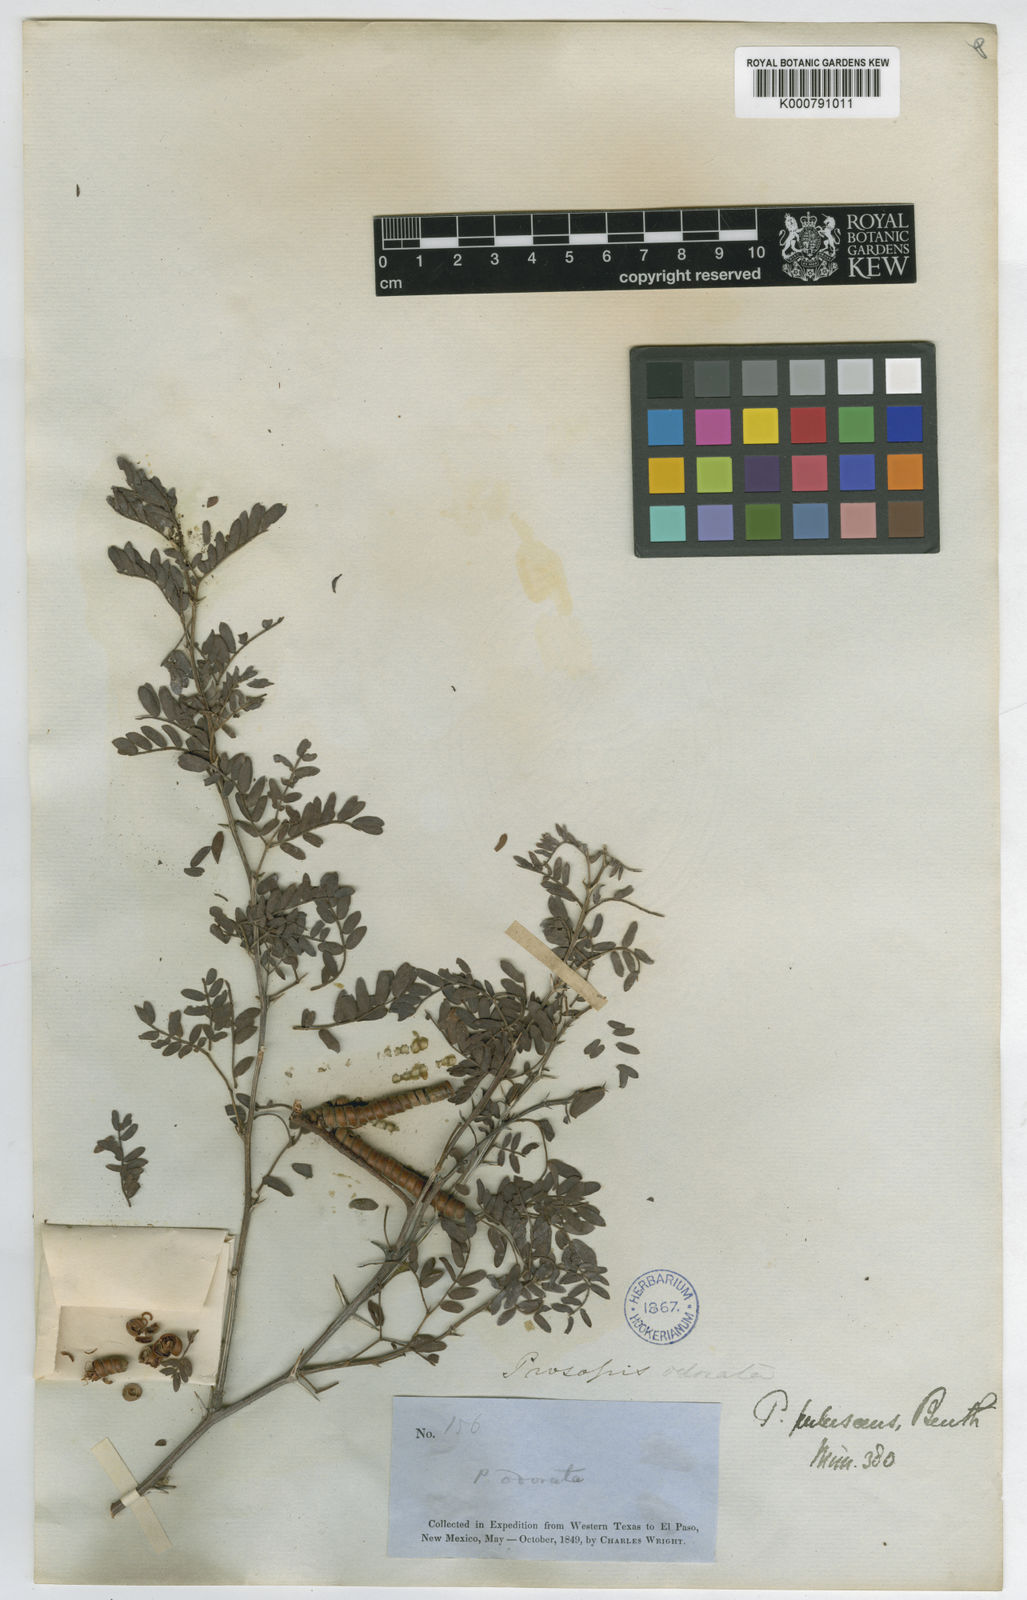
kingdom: Plantae
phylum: Tracheophyta
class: Magnoliopsida
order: Fabales
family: Fabaceae
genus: Prosopis
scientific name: Prosopis
